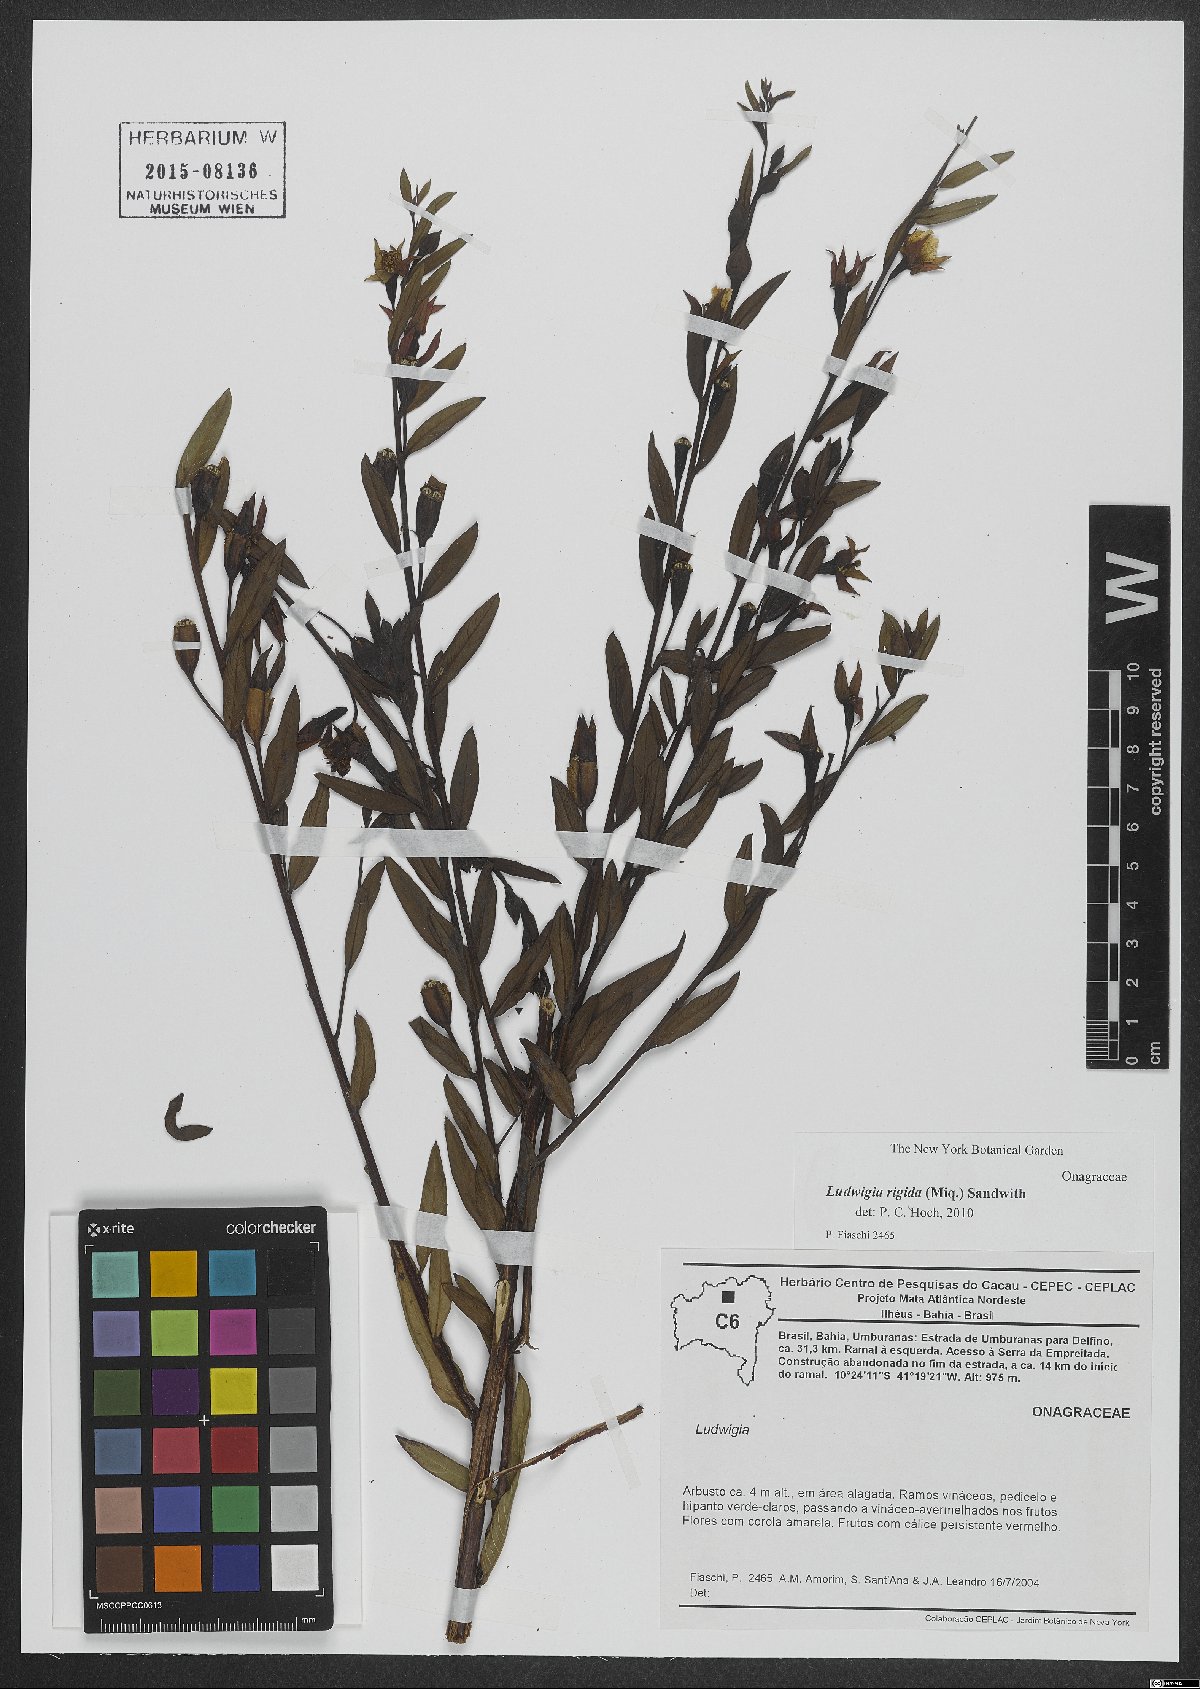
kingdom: Plantae
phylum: Tracheophyta
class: Magnoliopsida
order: Myrtales
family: Onagraceae
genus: Ludwigia
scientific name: Ludwigia rigida
